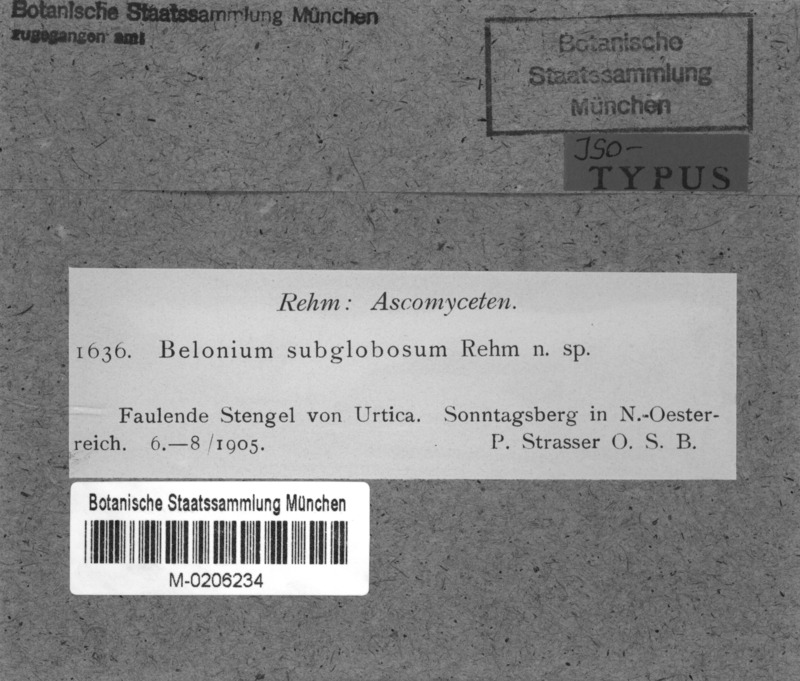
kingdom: Fungi
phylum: Ascomycota
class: Leotiomycetes
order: Helotiales
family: Ploettnerulaceae
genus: Belonium
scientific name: Belonium
